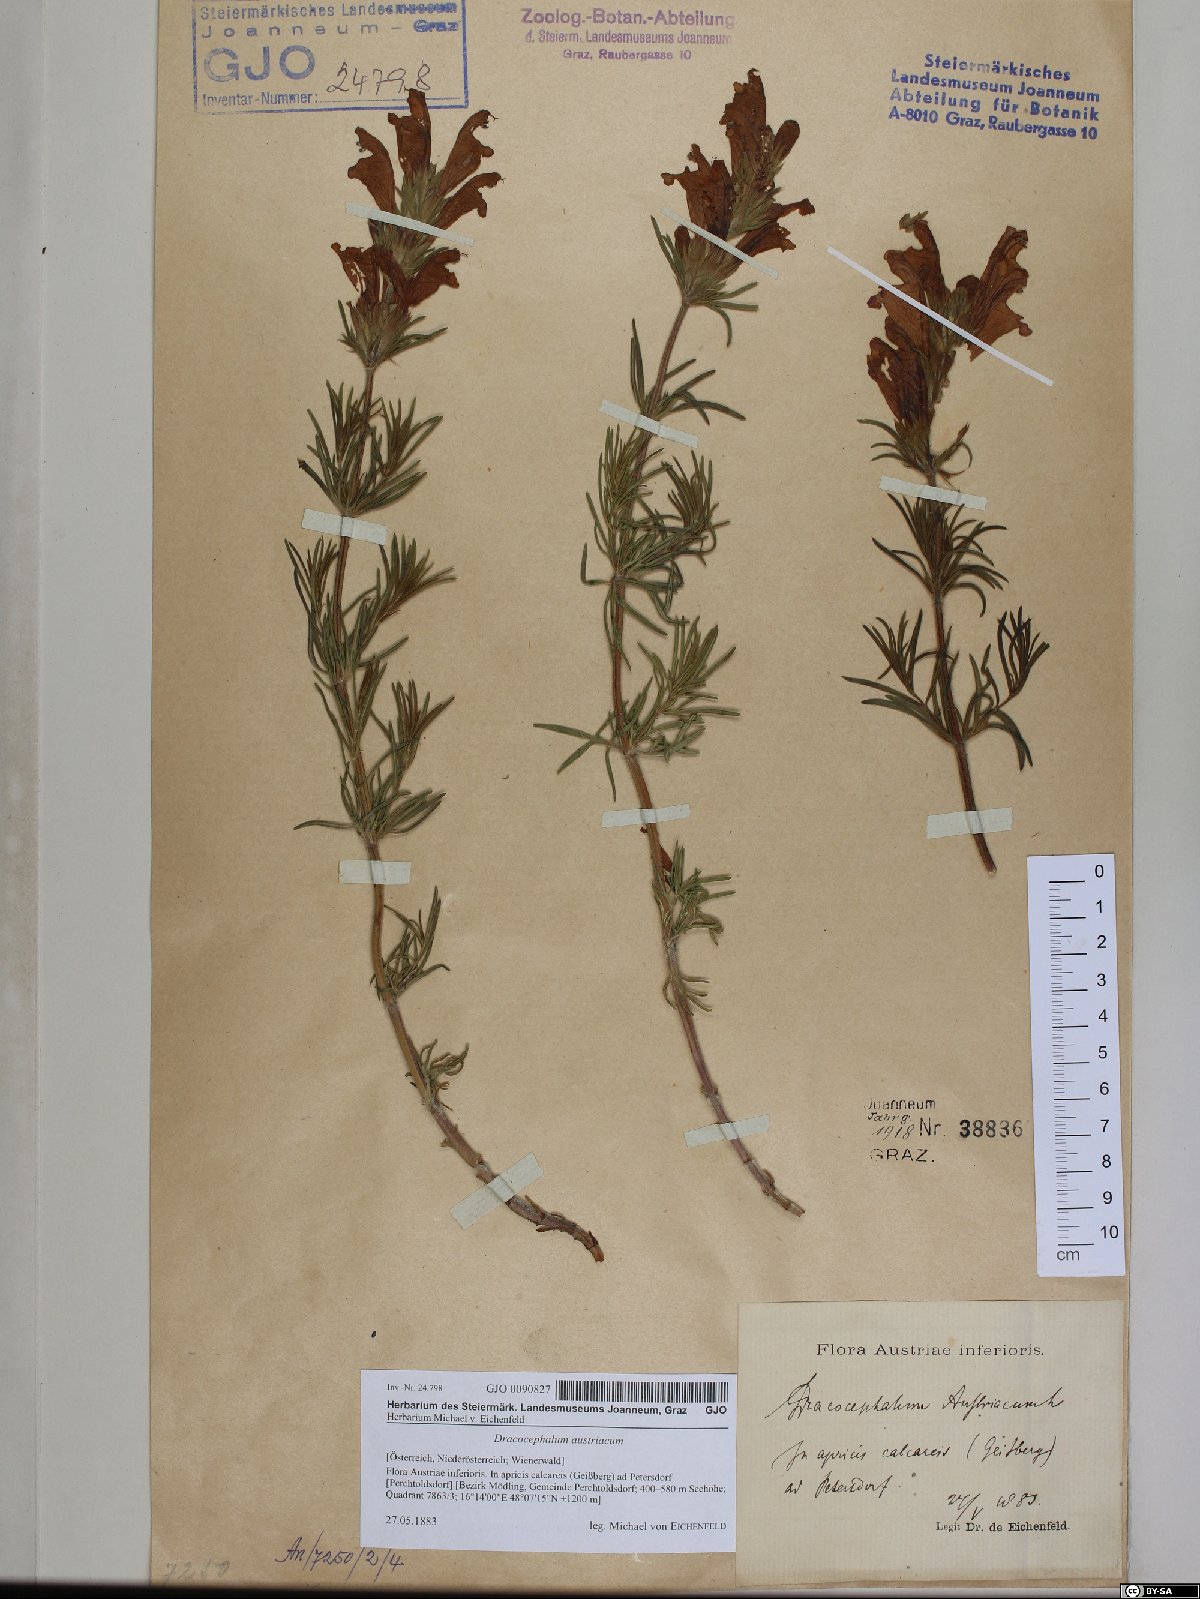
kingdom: Plantae
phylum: Tracheophyta
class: Magnoliopsida
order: Lamiales
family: Lamiaceae
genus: Dracocephalum
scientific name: Dracocephalum austriacum
